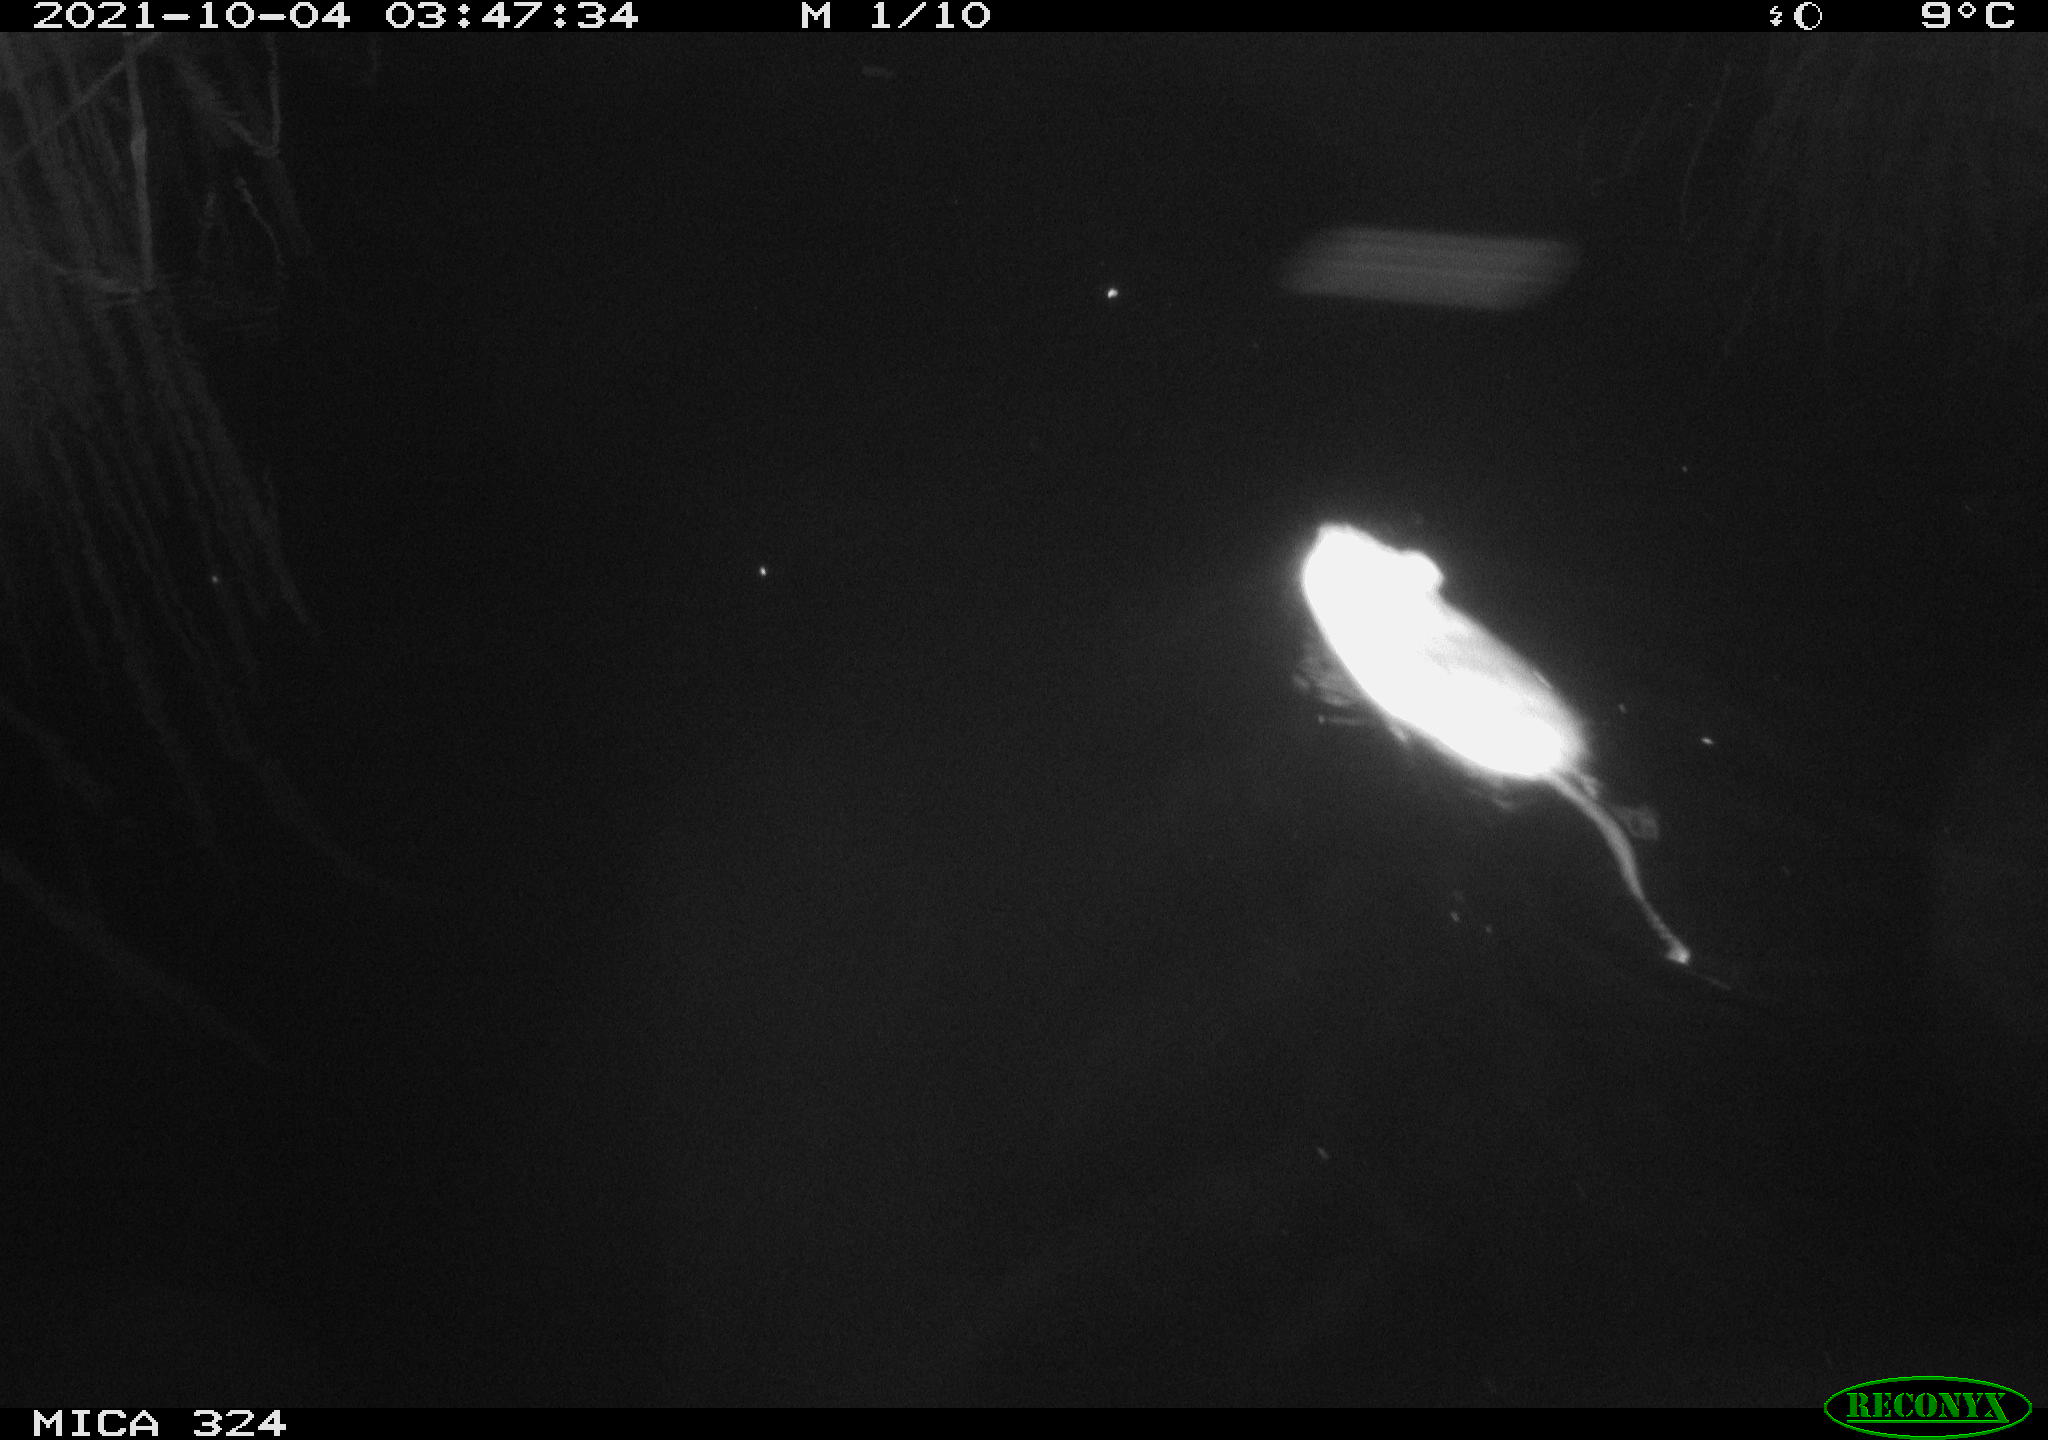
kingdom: Animalia
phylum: Chordata
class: Mammalia
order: Rodentia
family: Cricetidae
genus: Ondatra
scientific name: Ondatra zibethicus
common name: Muskrat
